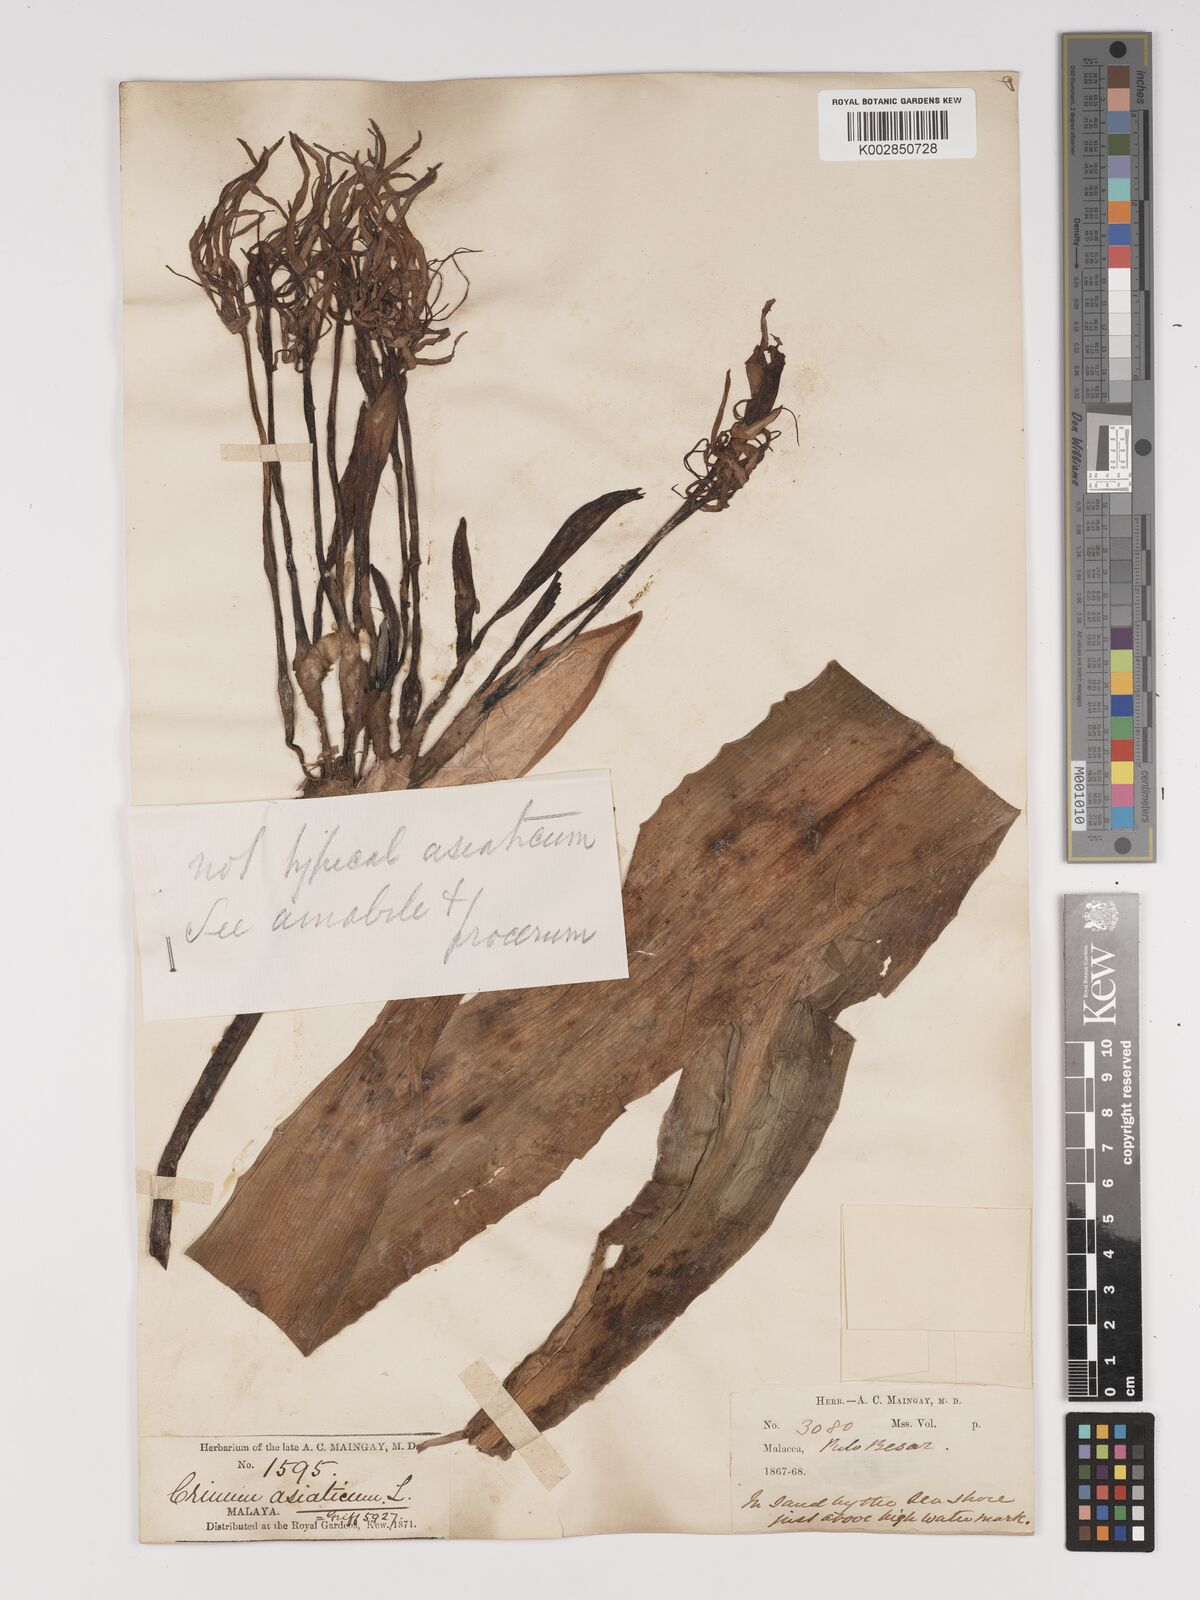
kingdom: Plantae
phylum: Tracheophyta
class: Liliopsida
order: Asparagales
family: Amaryllidaceae
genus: Crinum
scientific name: Crinum asiaticum
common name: Poisonbulb
